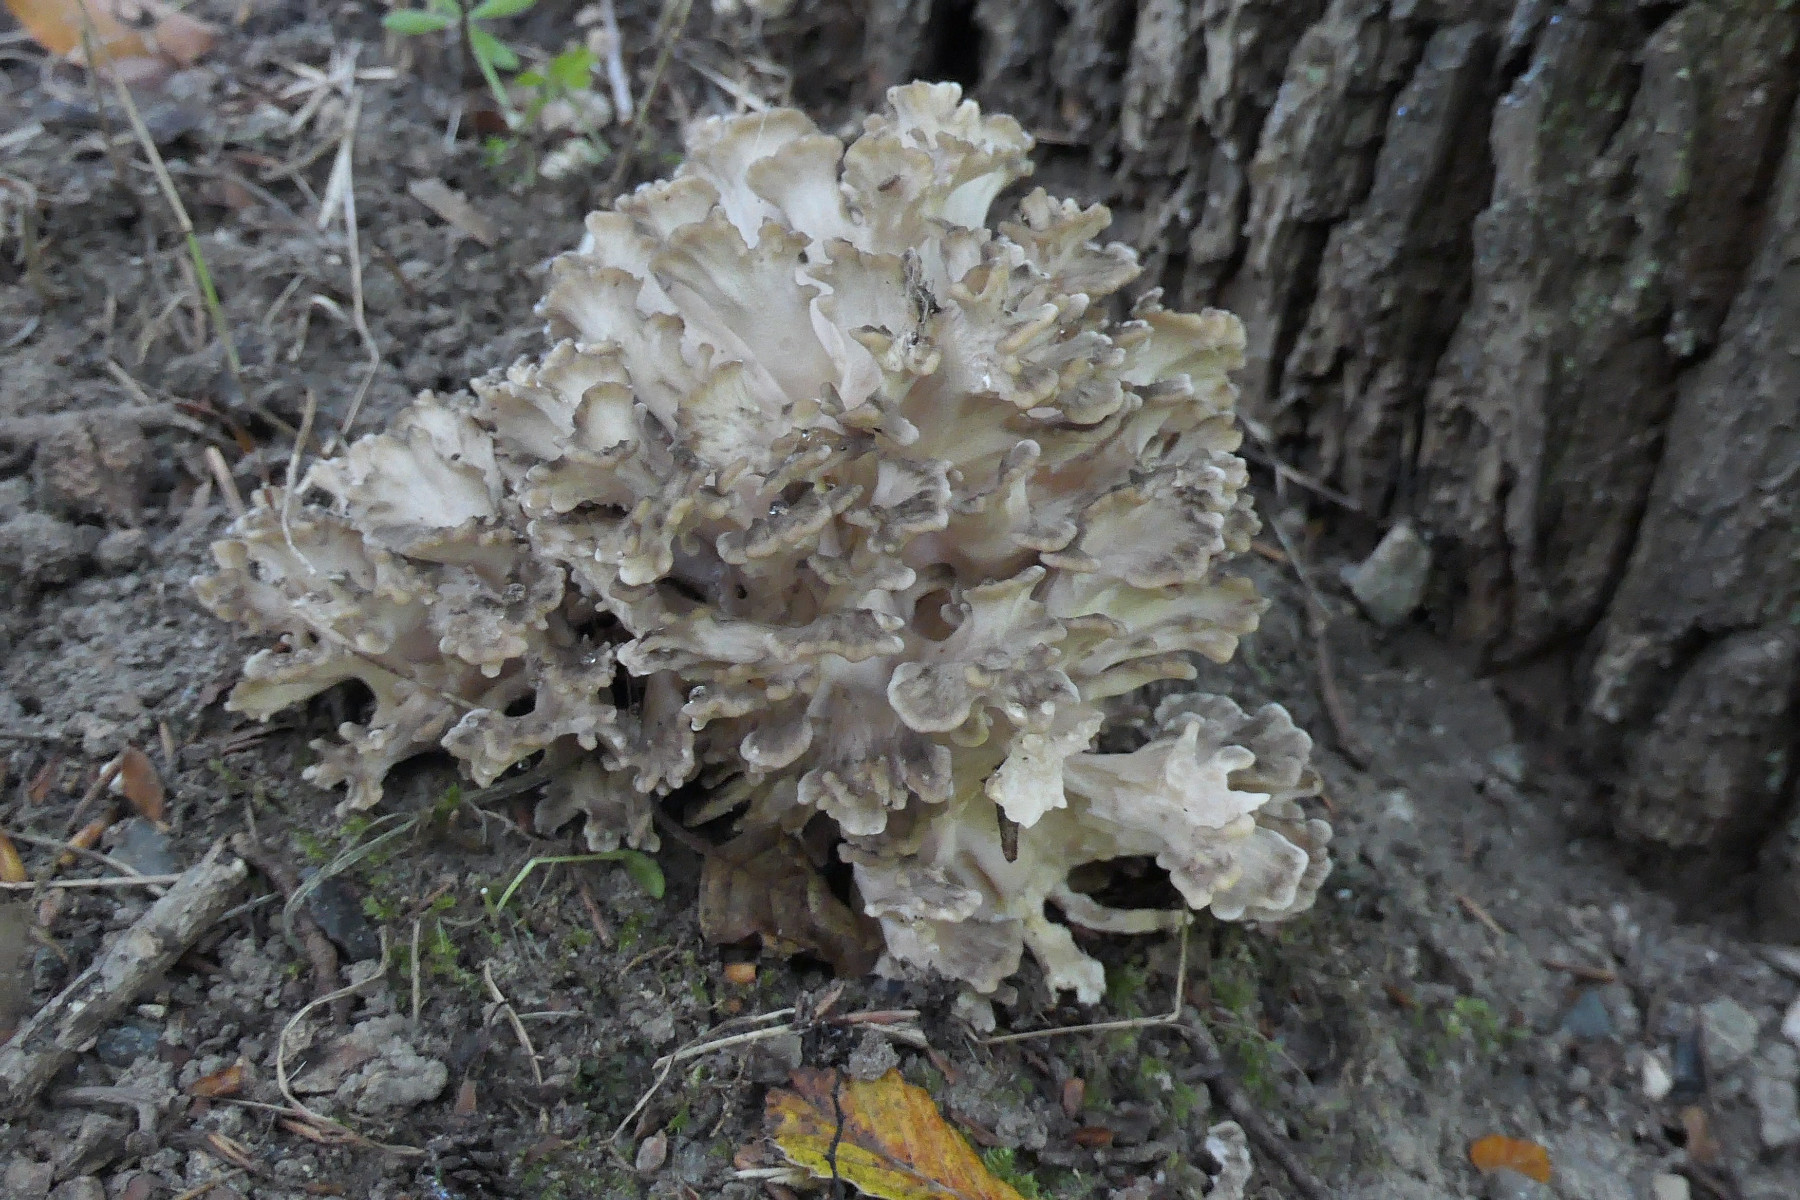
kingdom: Fungi
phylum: Basidiomycota
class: Agaricomycetes
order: Polyporales
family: Grifolaceae
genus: Grifola
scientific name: Grifola frondosa
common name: tueporesvamp
